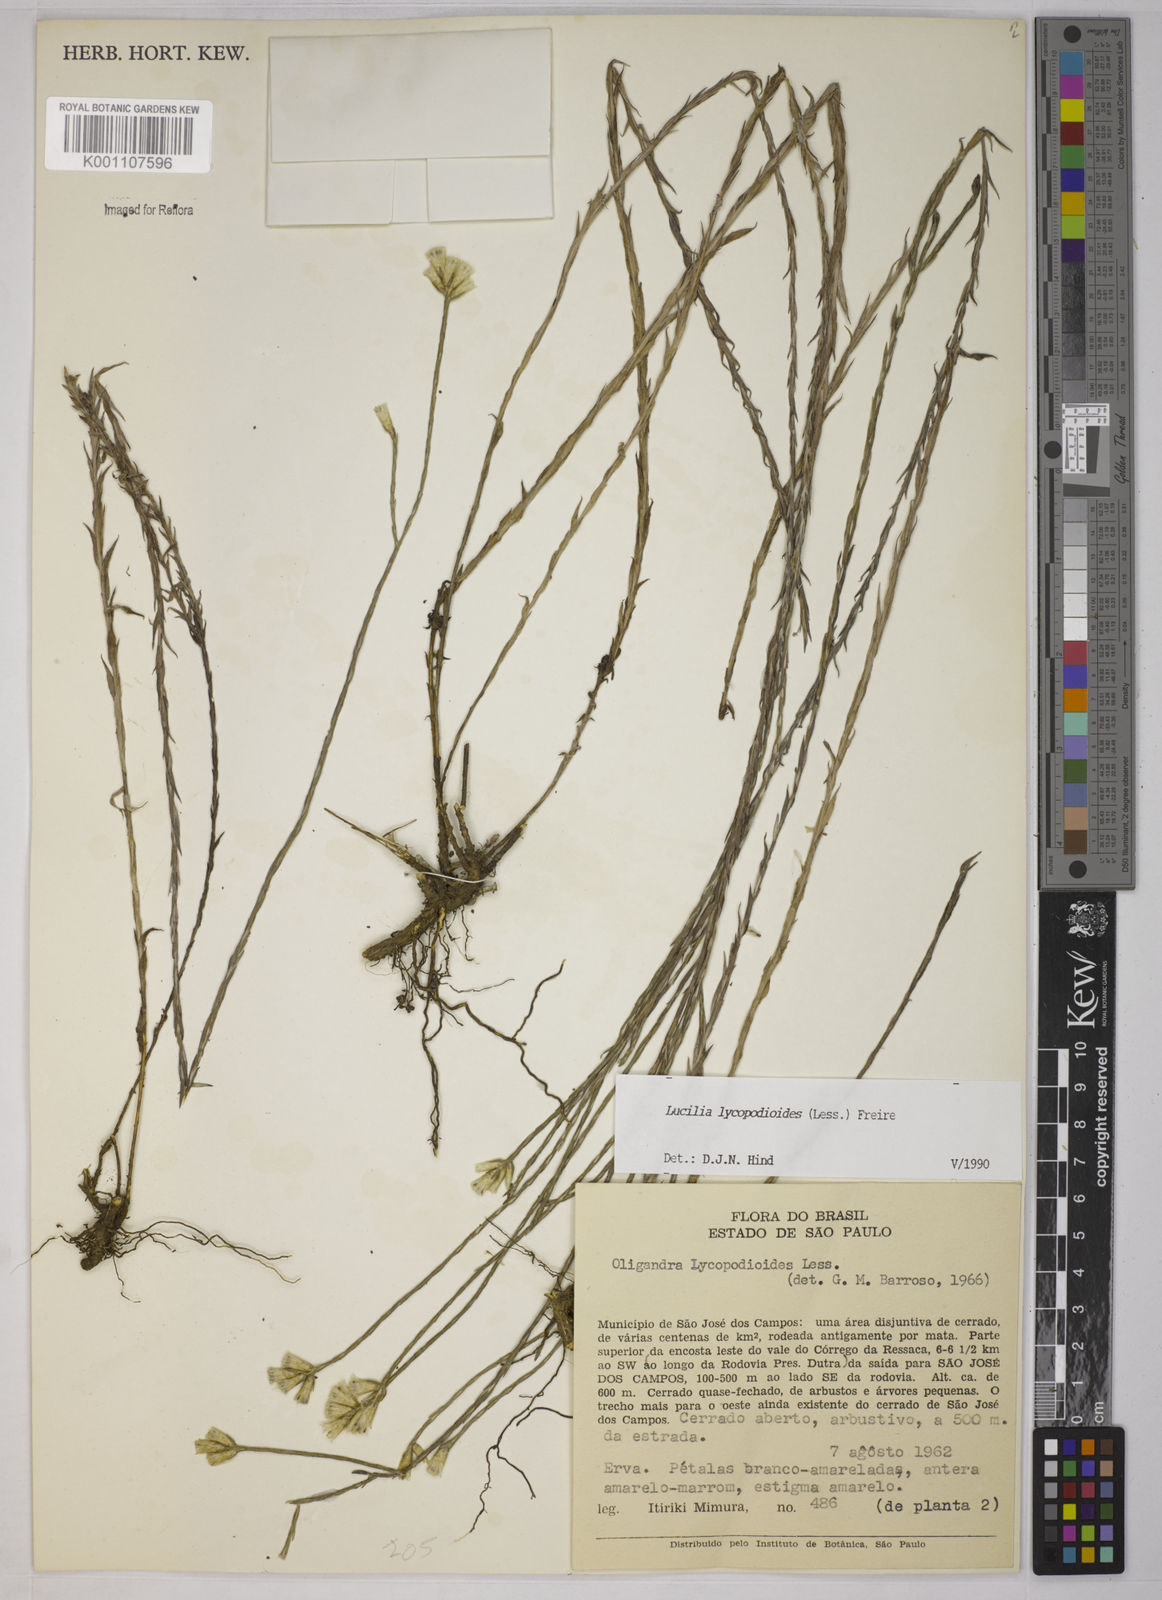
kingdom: Plantae
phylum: Tracheophyta
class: Magnoliopsida
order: Asterales
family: Asteraceae
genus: Lucilia
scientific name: Lucilia lycopodioides
